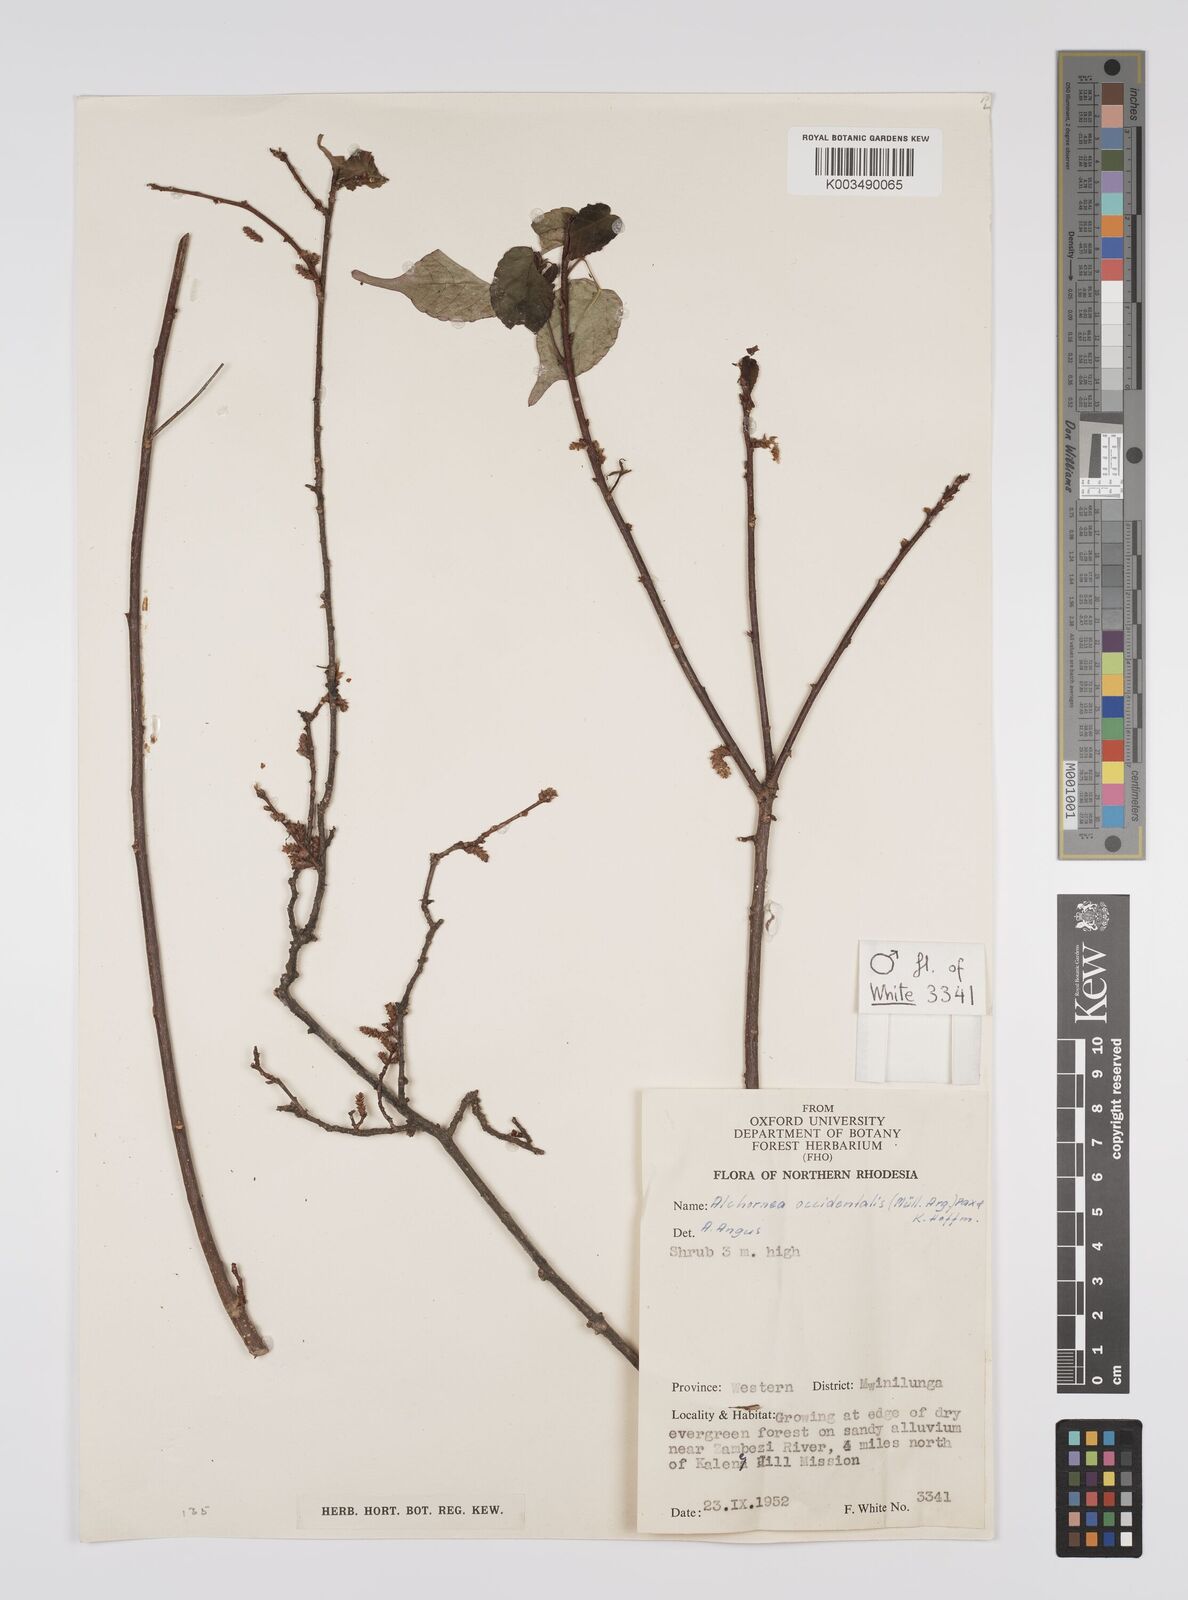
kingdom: Plantae
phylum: Tracheophyta
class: Magnoliopsida
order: Malpighiales
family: Euphorbiaceae
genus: Alchornea
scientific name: Alchornea occidentalis
